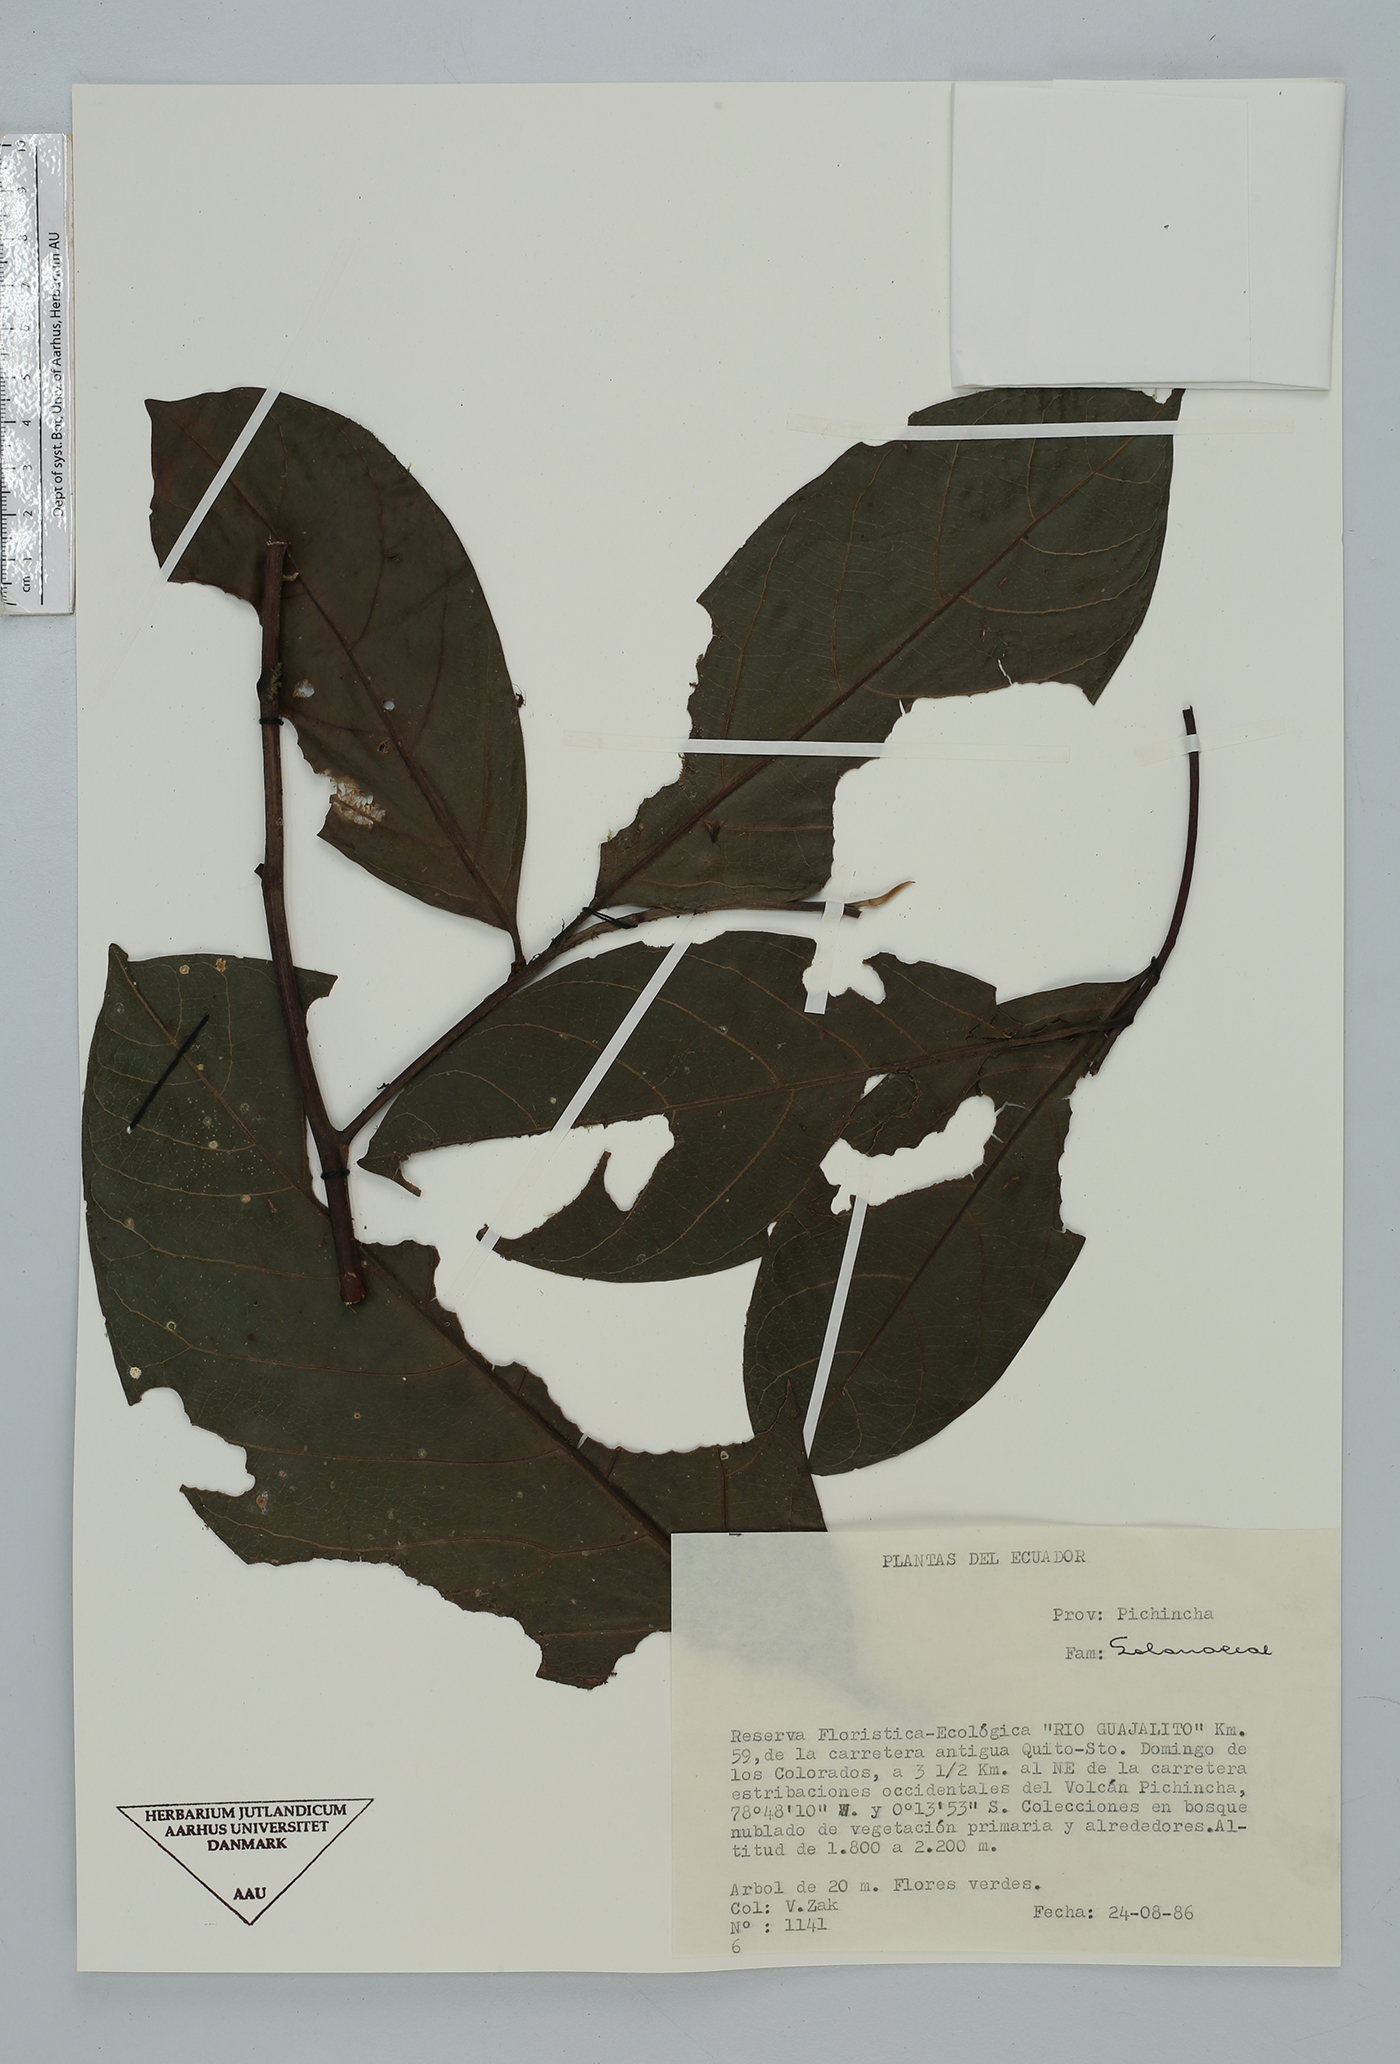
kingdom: Plantae
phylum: Tracheophyta
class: Magnoliopsida
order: Solanales
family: Solanaceae
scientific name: Solanaceae
